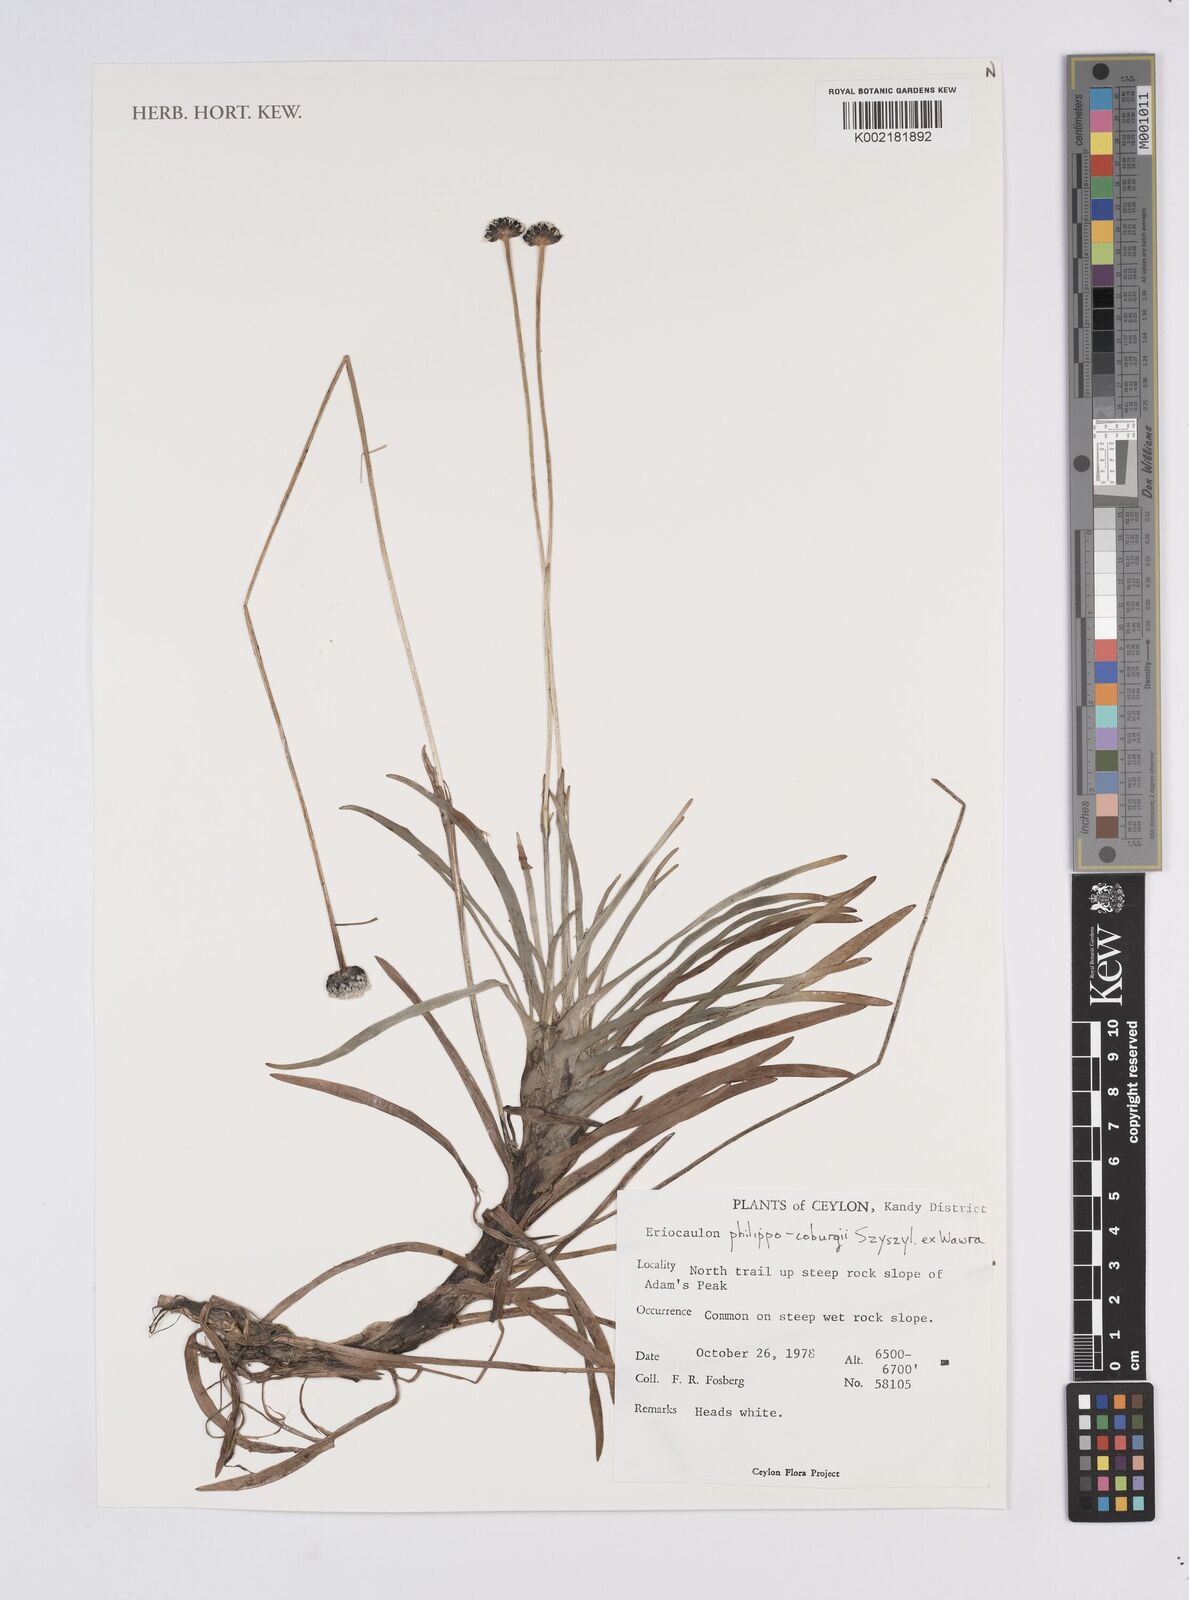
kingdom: Plantae
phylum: Tracheophyta
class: Liliopsida
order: Poales
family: Eriocaulaceae
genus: Eriocaulon
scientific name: Eriocaulon philippo-coburgii
